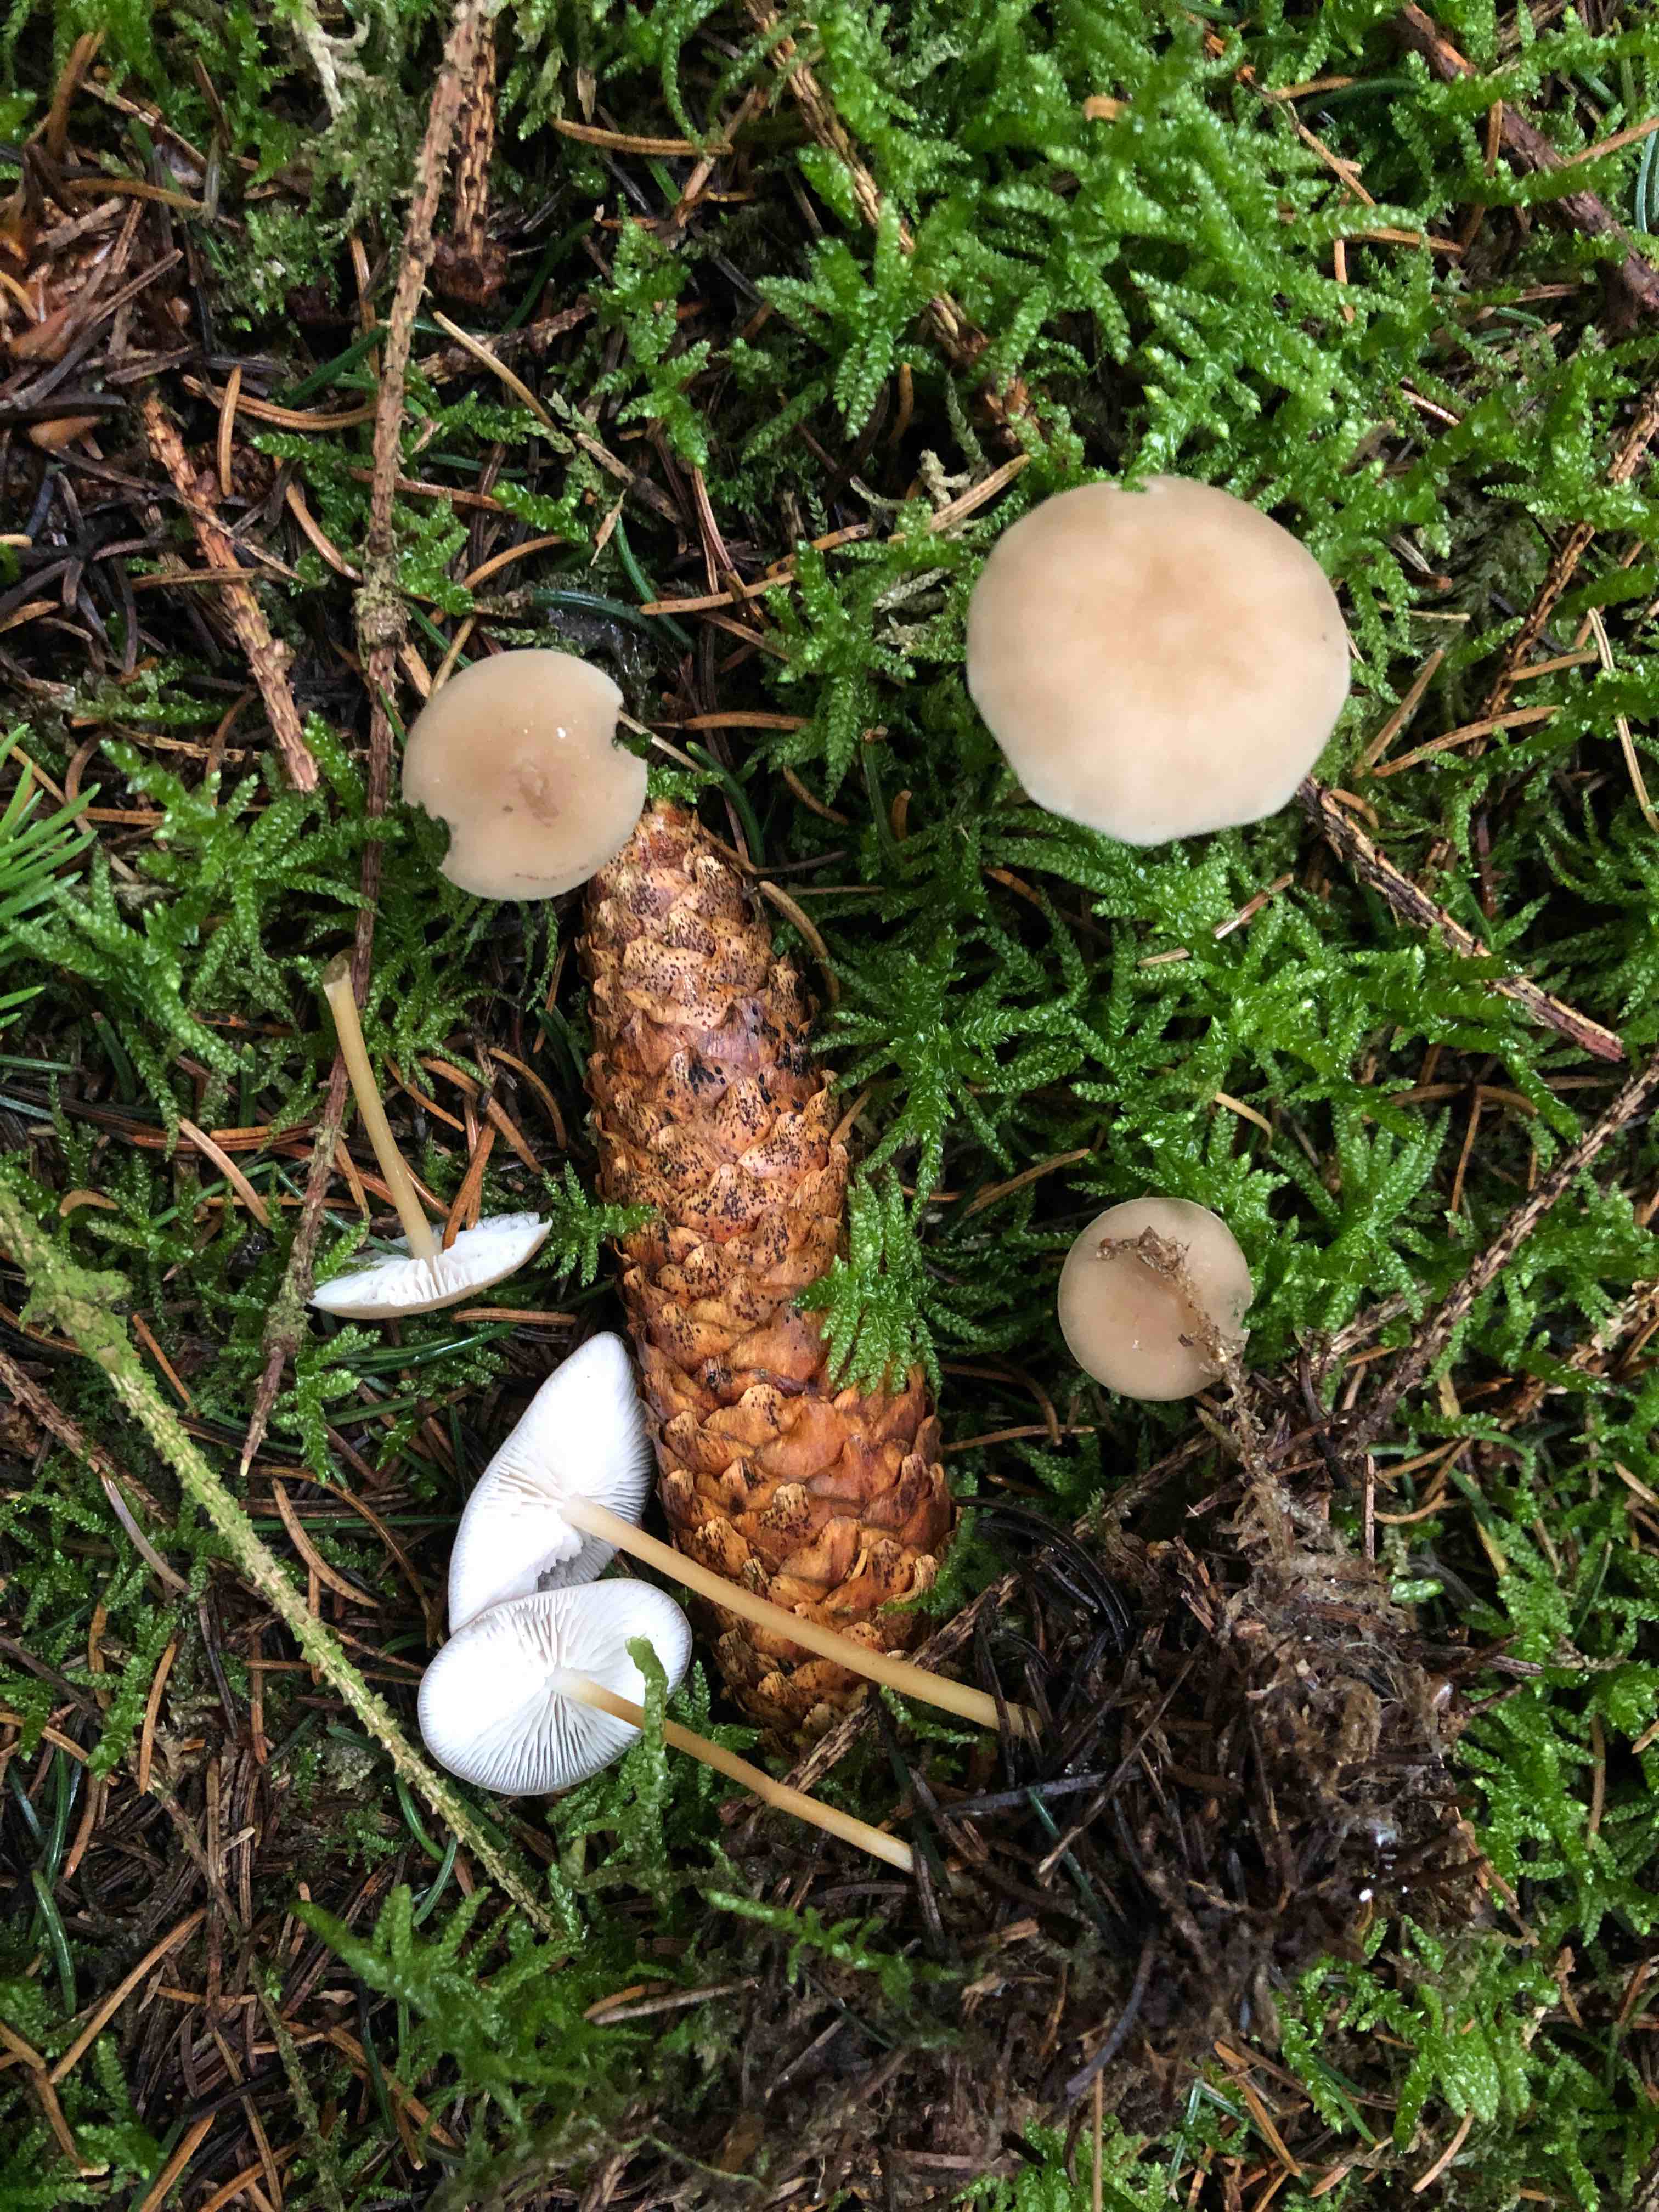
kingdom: Fungi
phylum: Basidiomycota
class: Agaricomycetes
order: Agaricales
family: Physalacriaceae
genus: Strobilurus
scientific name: Strobilurus esculentus
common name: gran-koglehat
